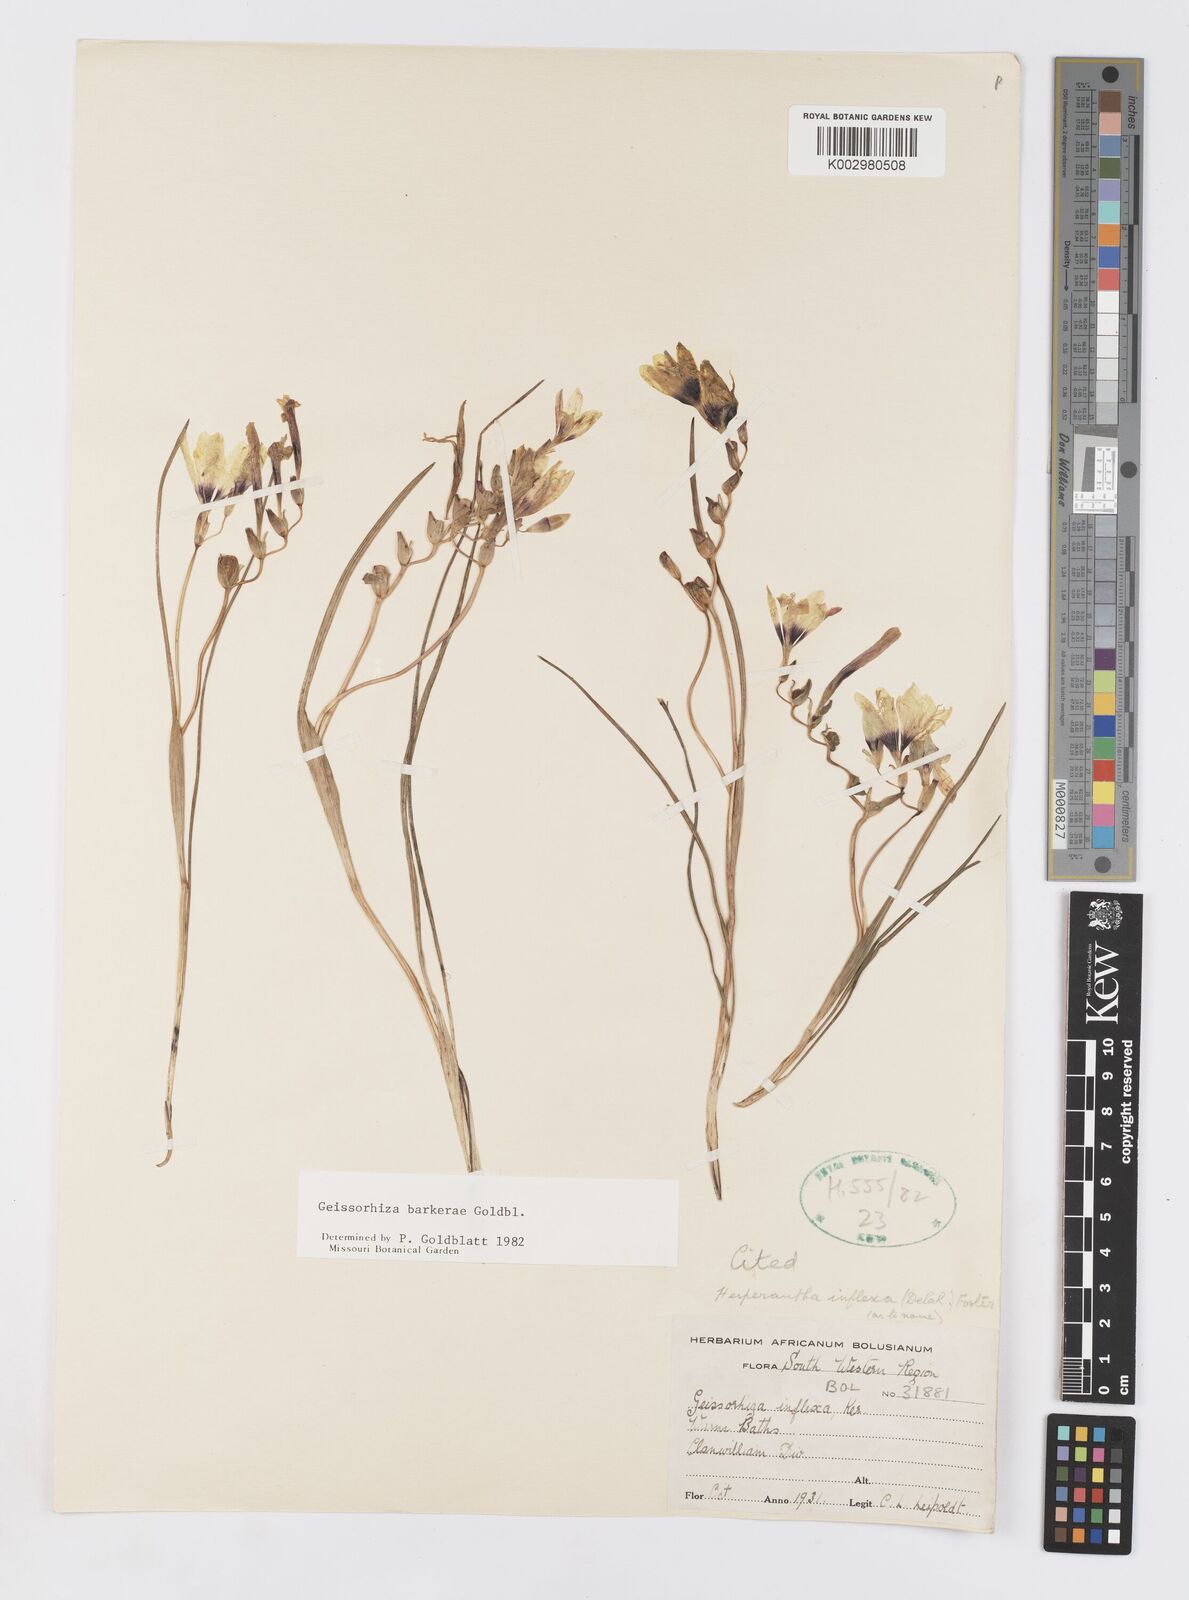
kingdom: Plantae
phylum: Tracheophyta
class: Liliopsida
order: Asparagales
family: Iridaceae
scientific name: Iridaceae
